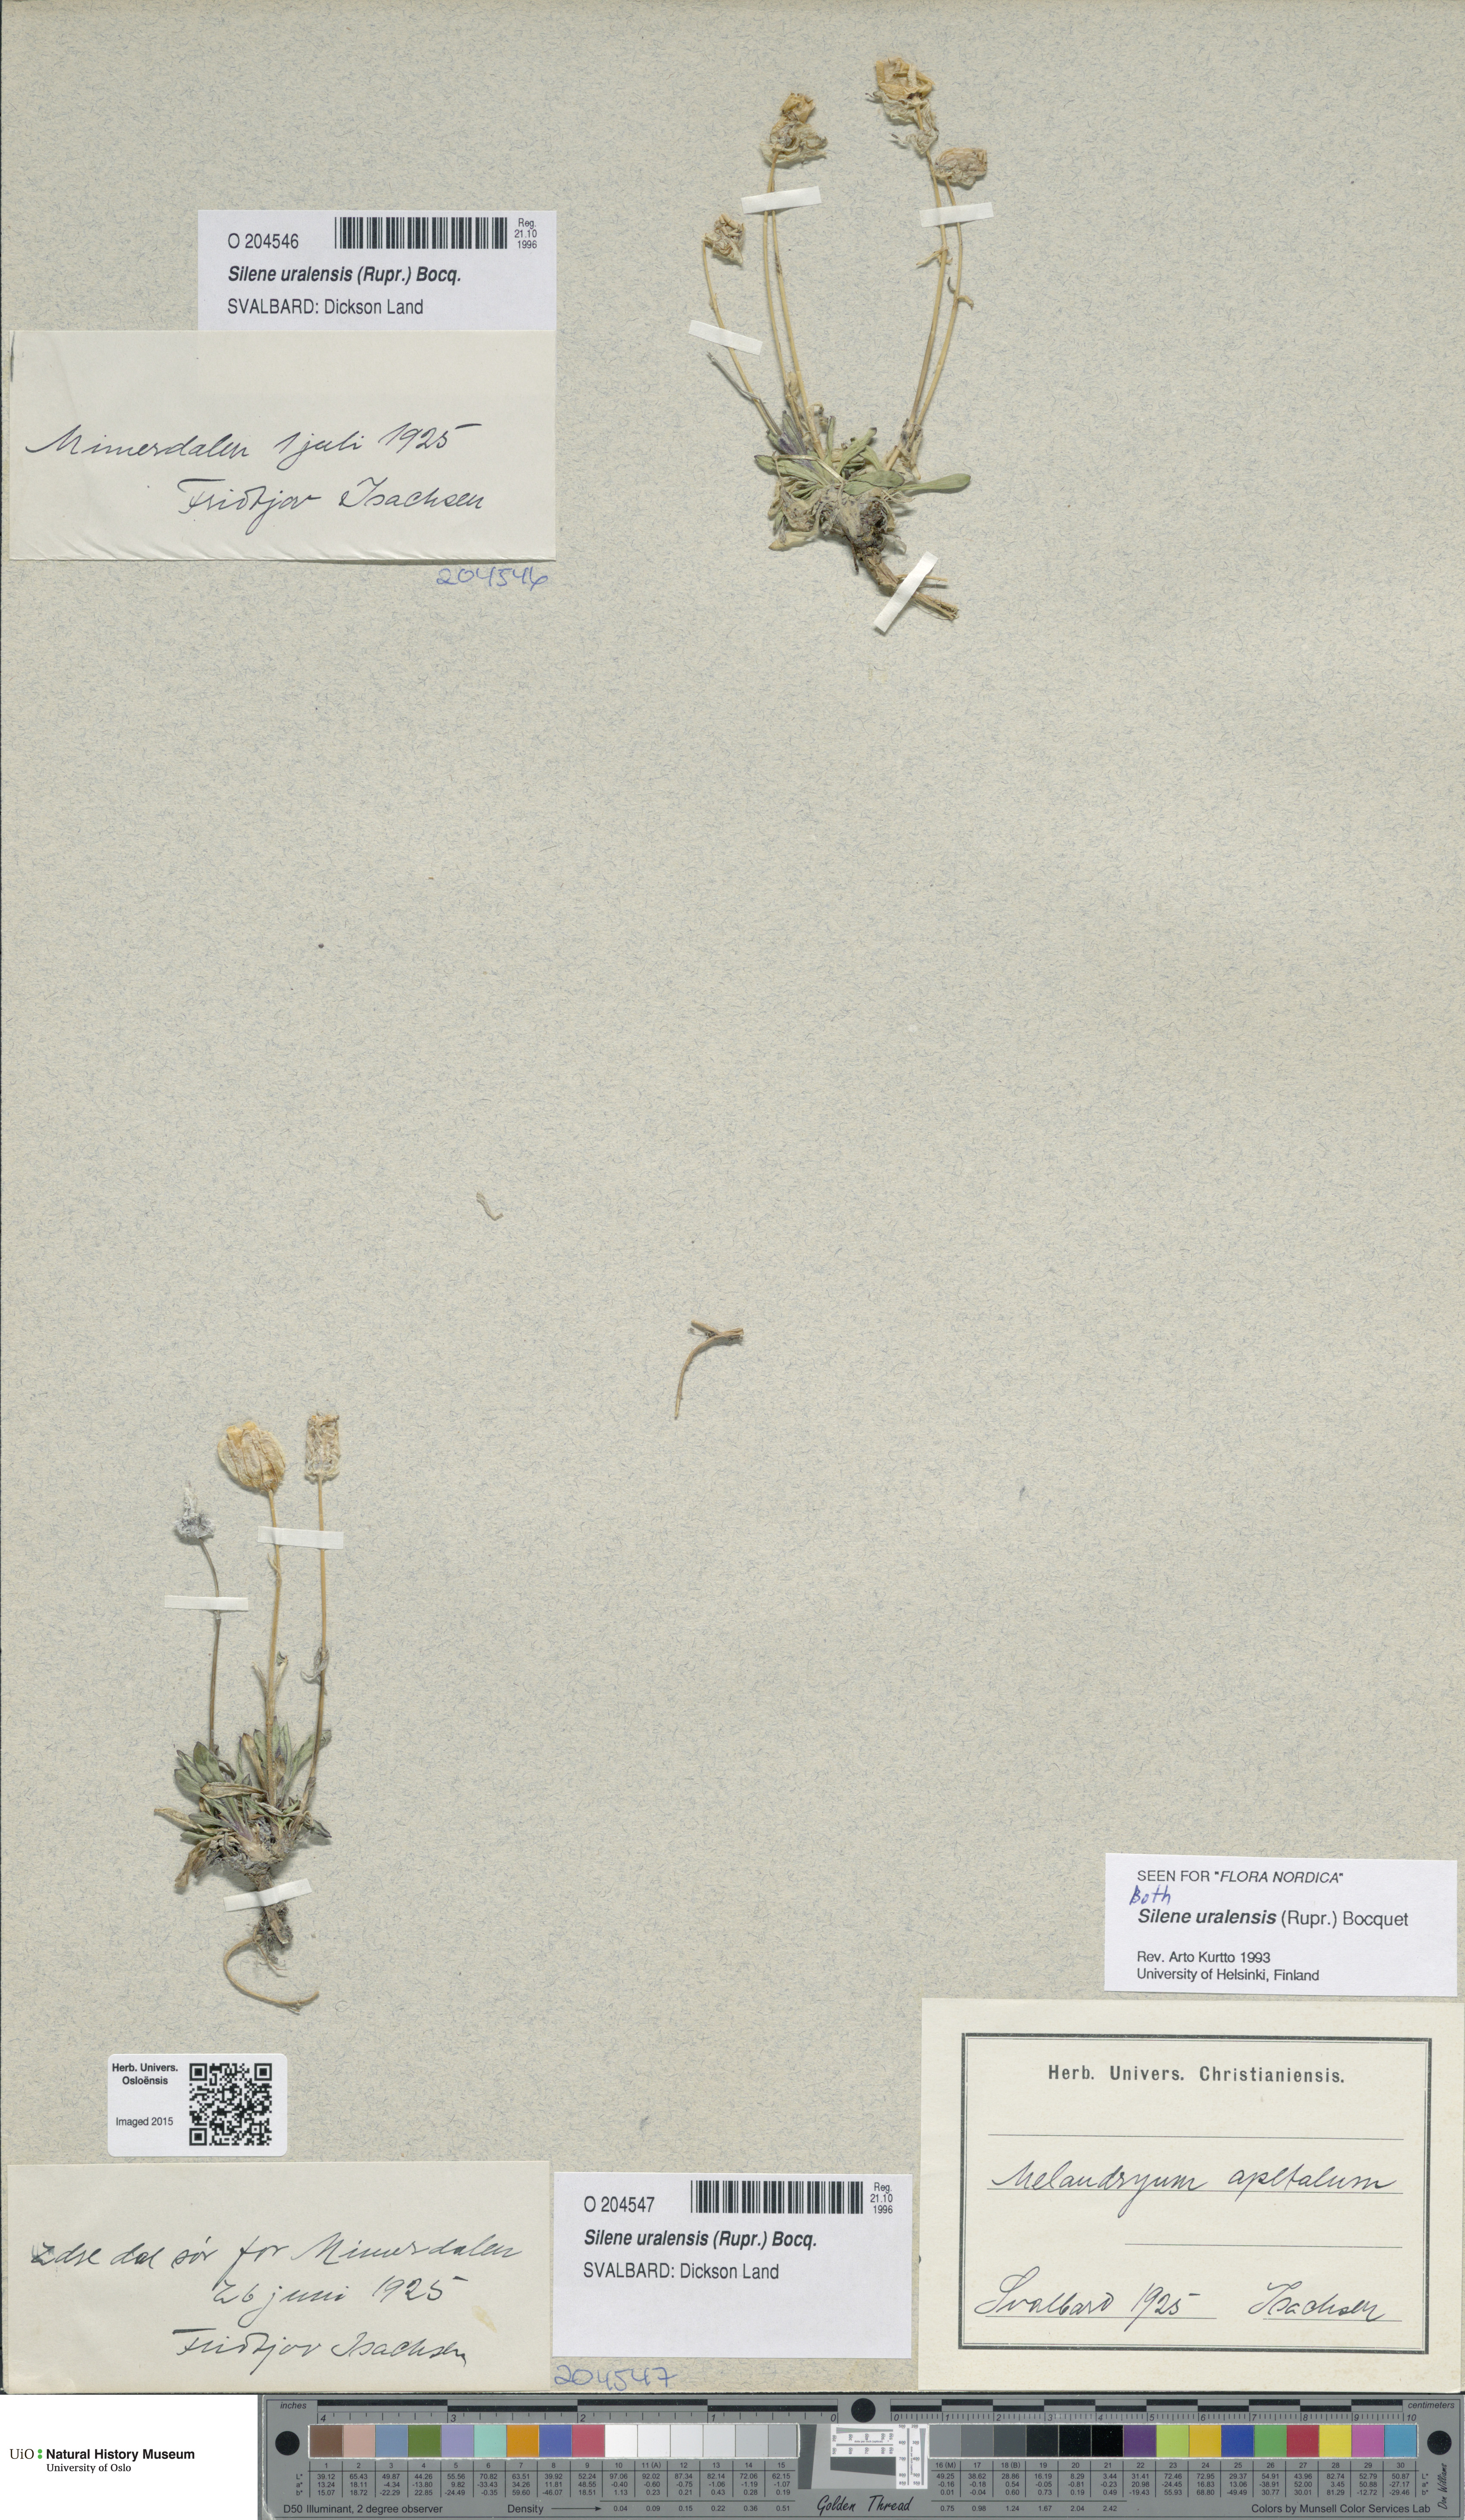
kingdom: Plantae
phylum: Tracheophyta
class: Magnoliopsida
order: Caryophyllales
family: Caryophyllaceae
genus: Silene
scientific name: Silene uralensis
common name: Nodding campion
